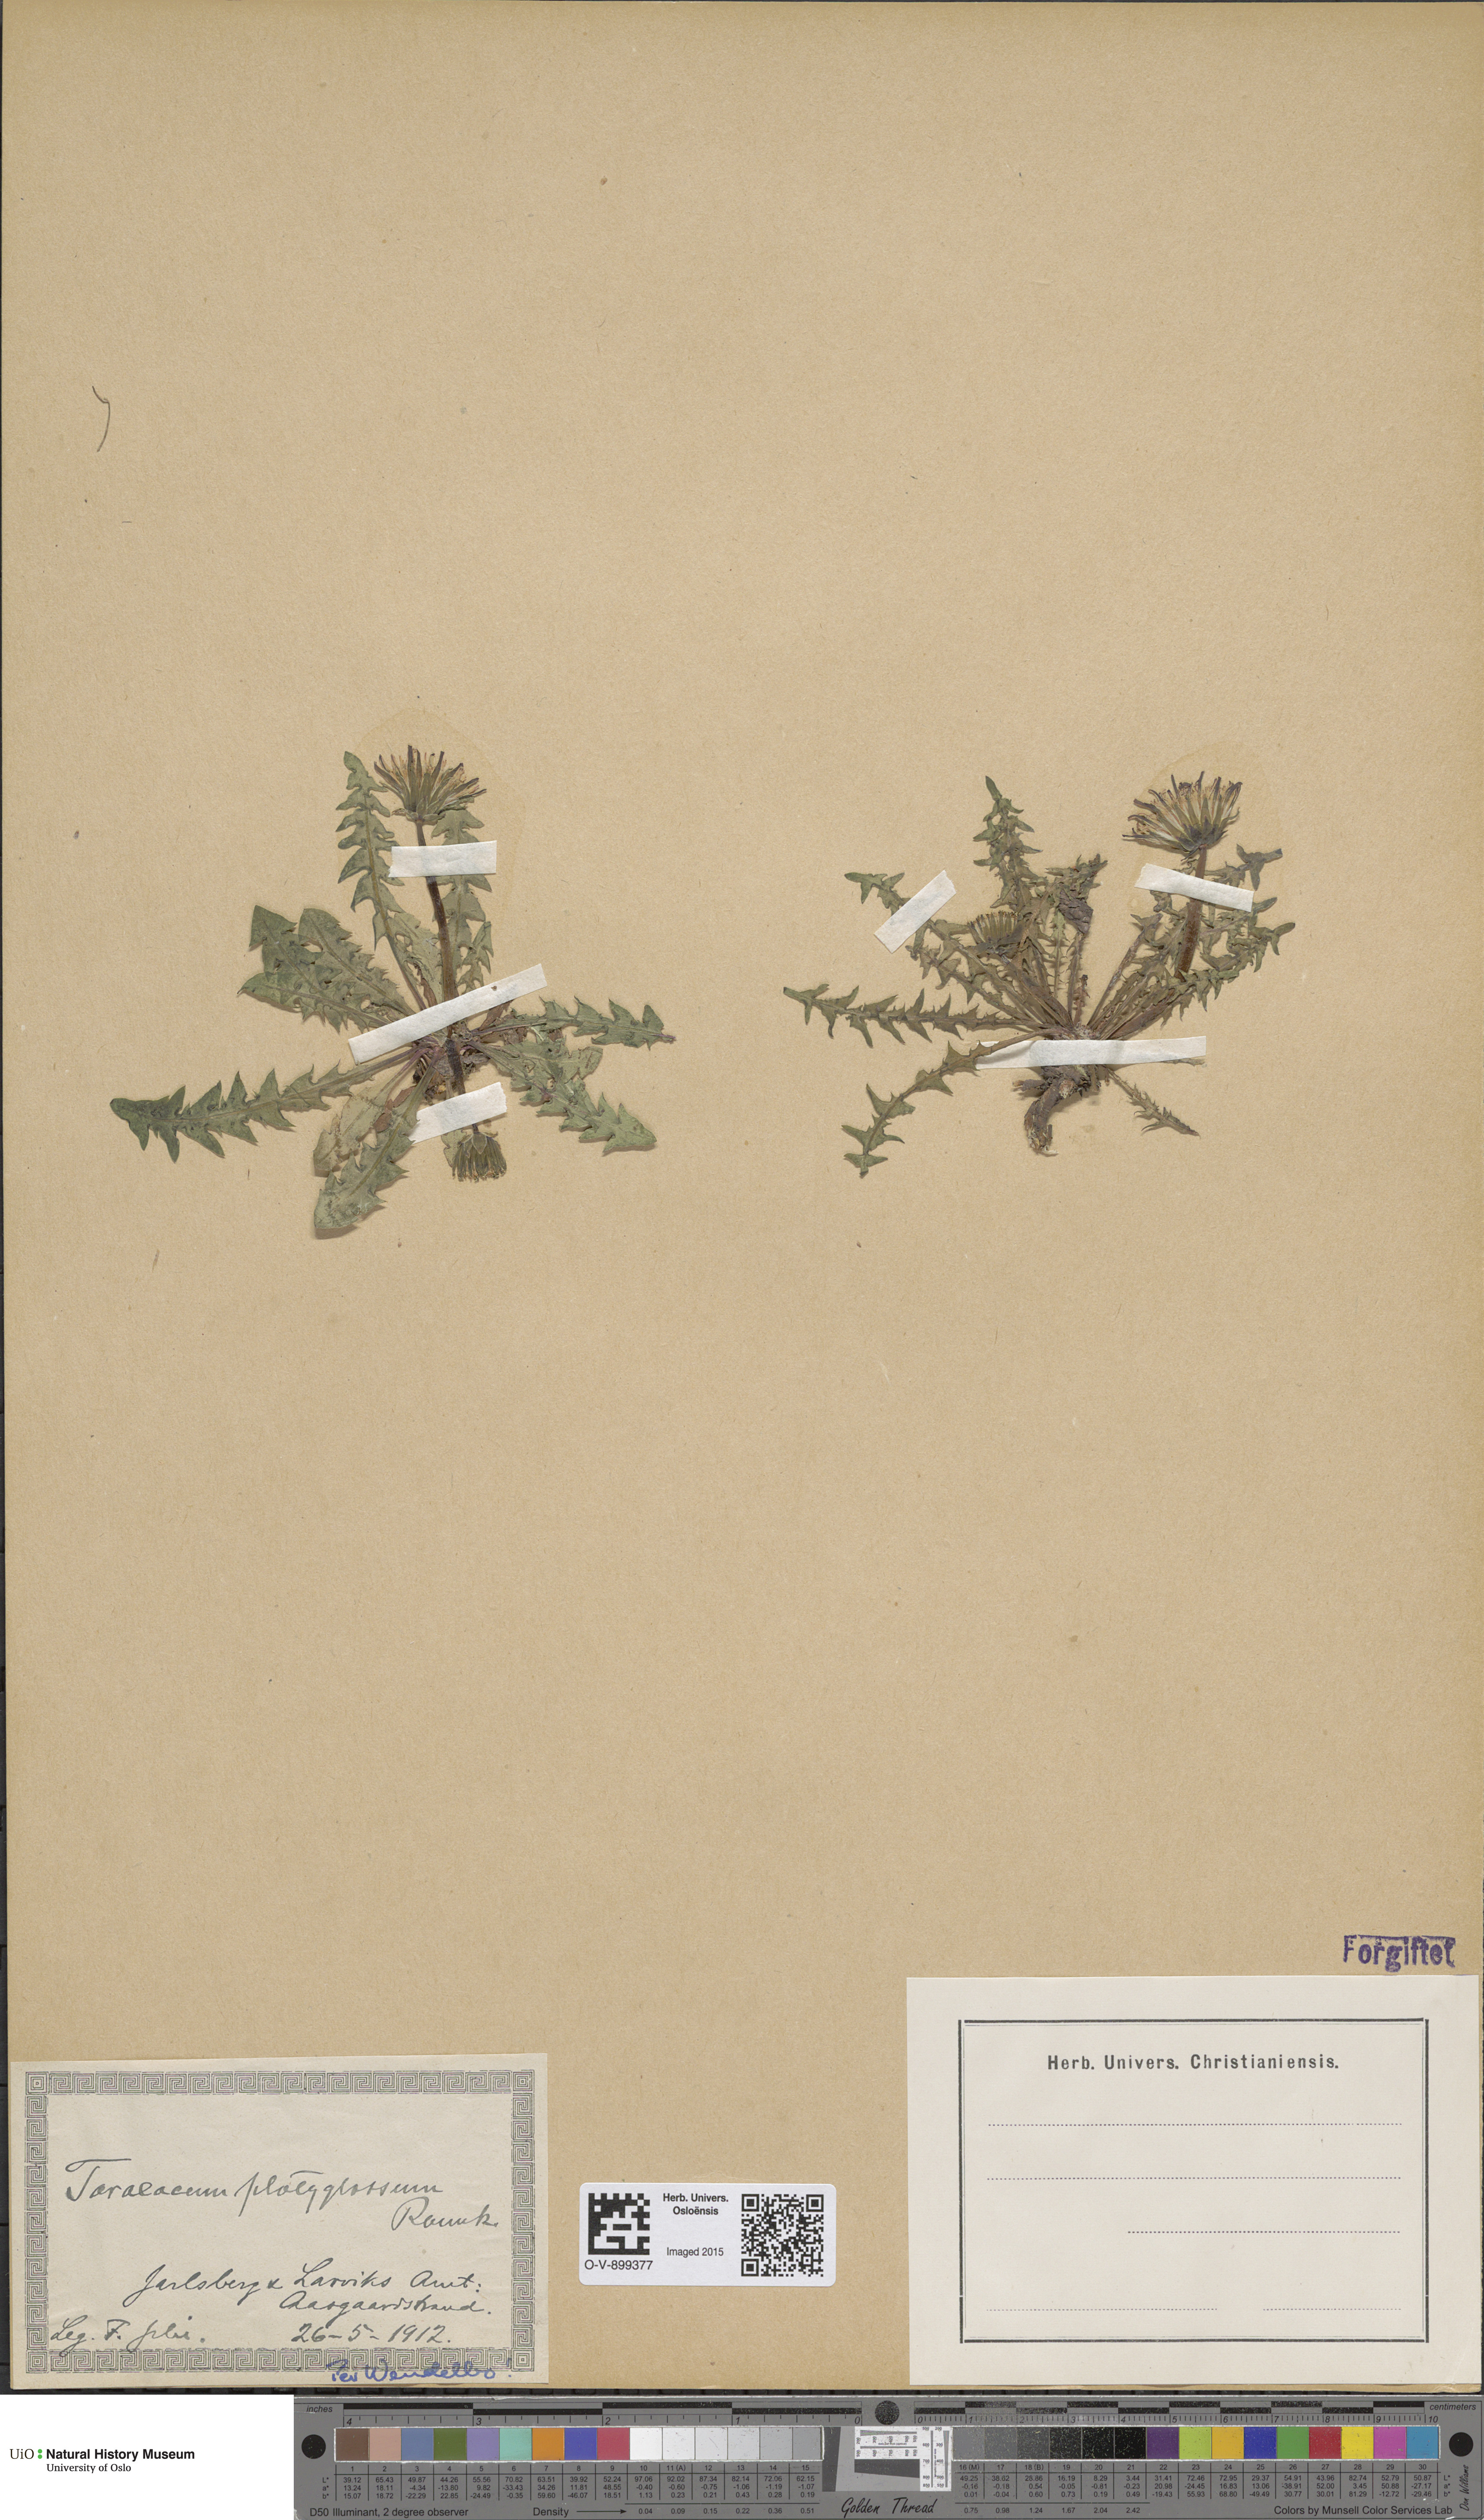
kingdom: Plantae
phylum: Tracheophyta
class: Magnoliopsida
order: Asterales
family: Asteraceae
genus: Taraxacum
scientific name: Taraxacum platyglossum
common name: Tongue-leaved dandelion
